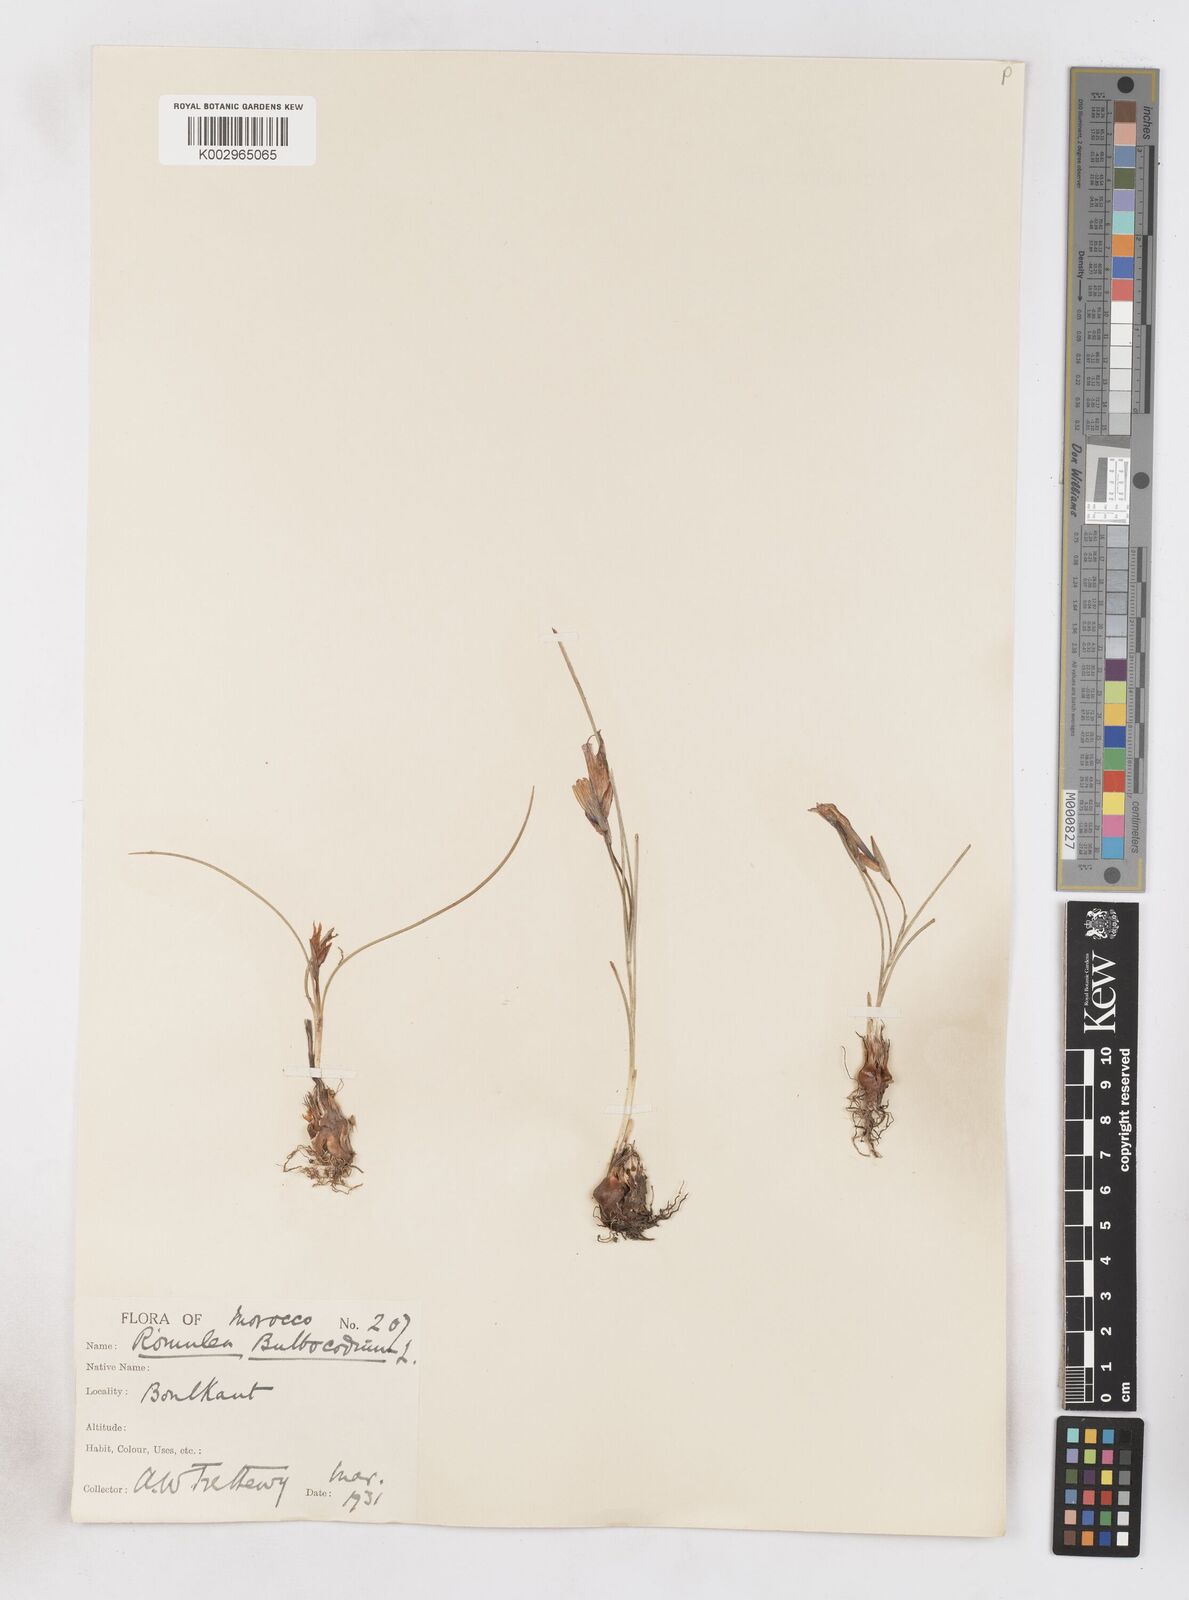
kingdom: Plantae
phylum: Tracheophyta
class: Liliopsida
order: Asparagales
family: Iridaceae
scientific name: Iridaceae
